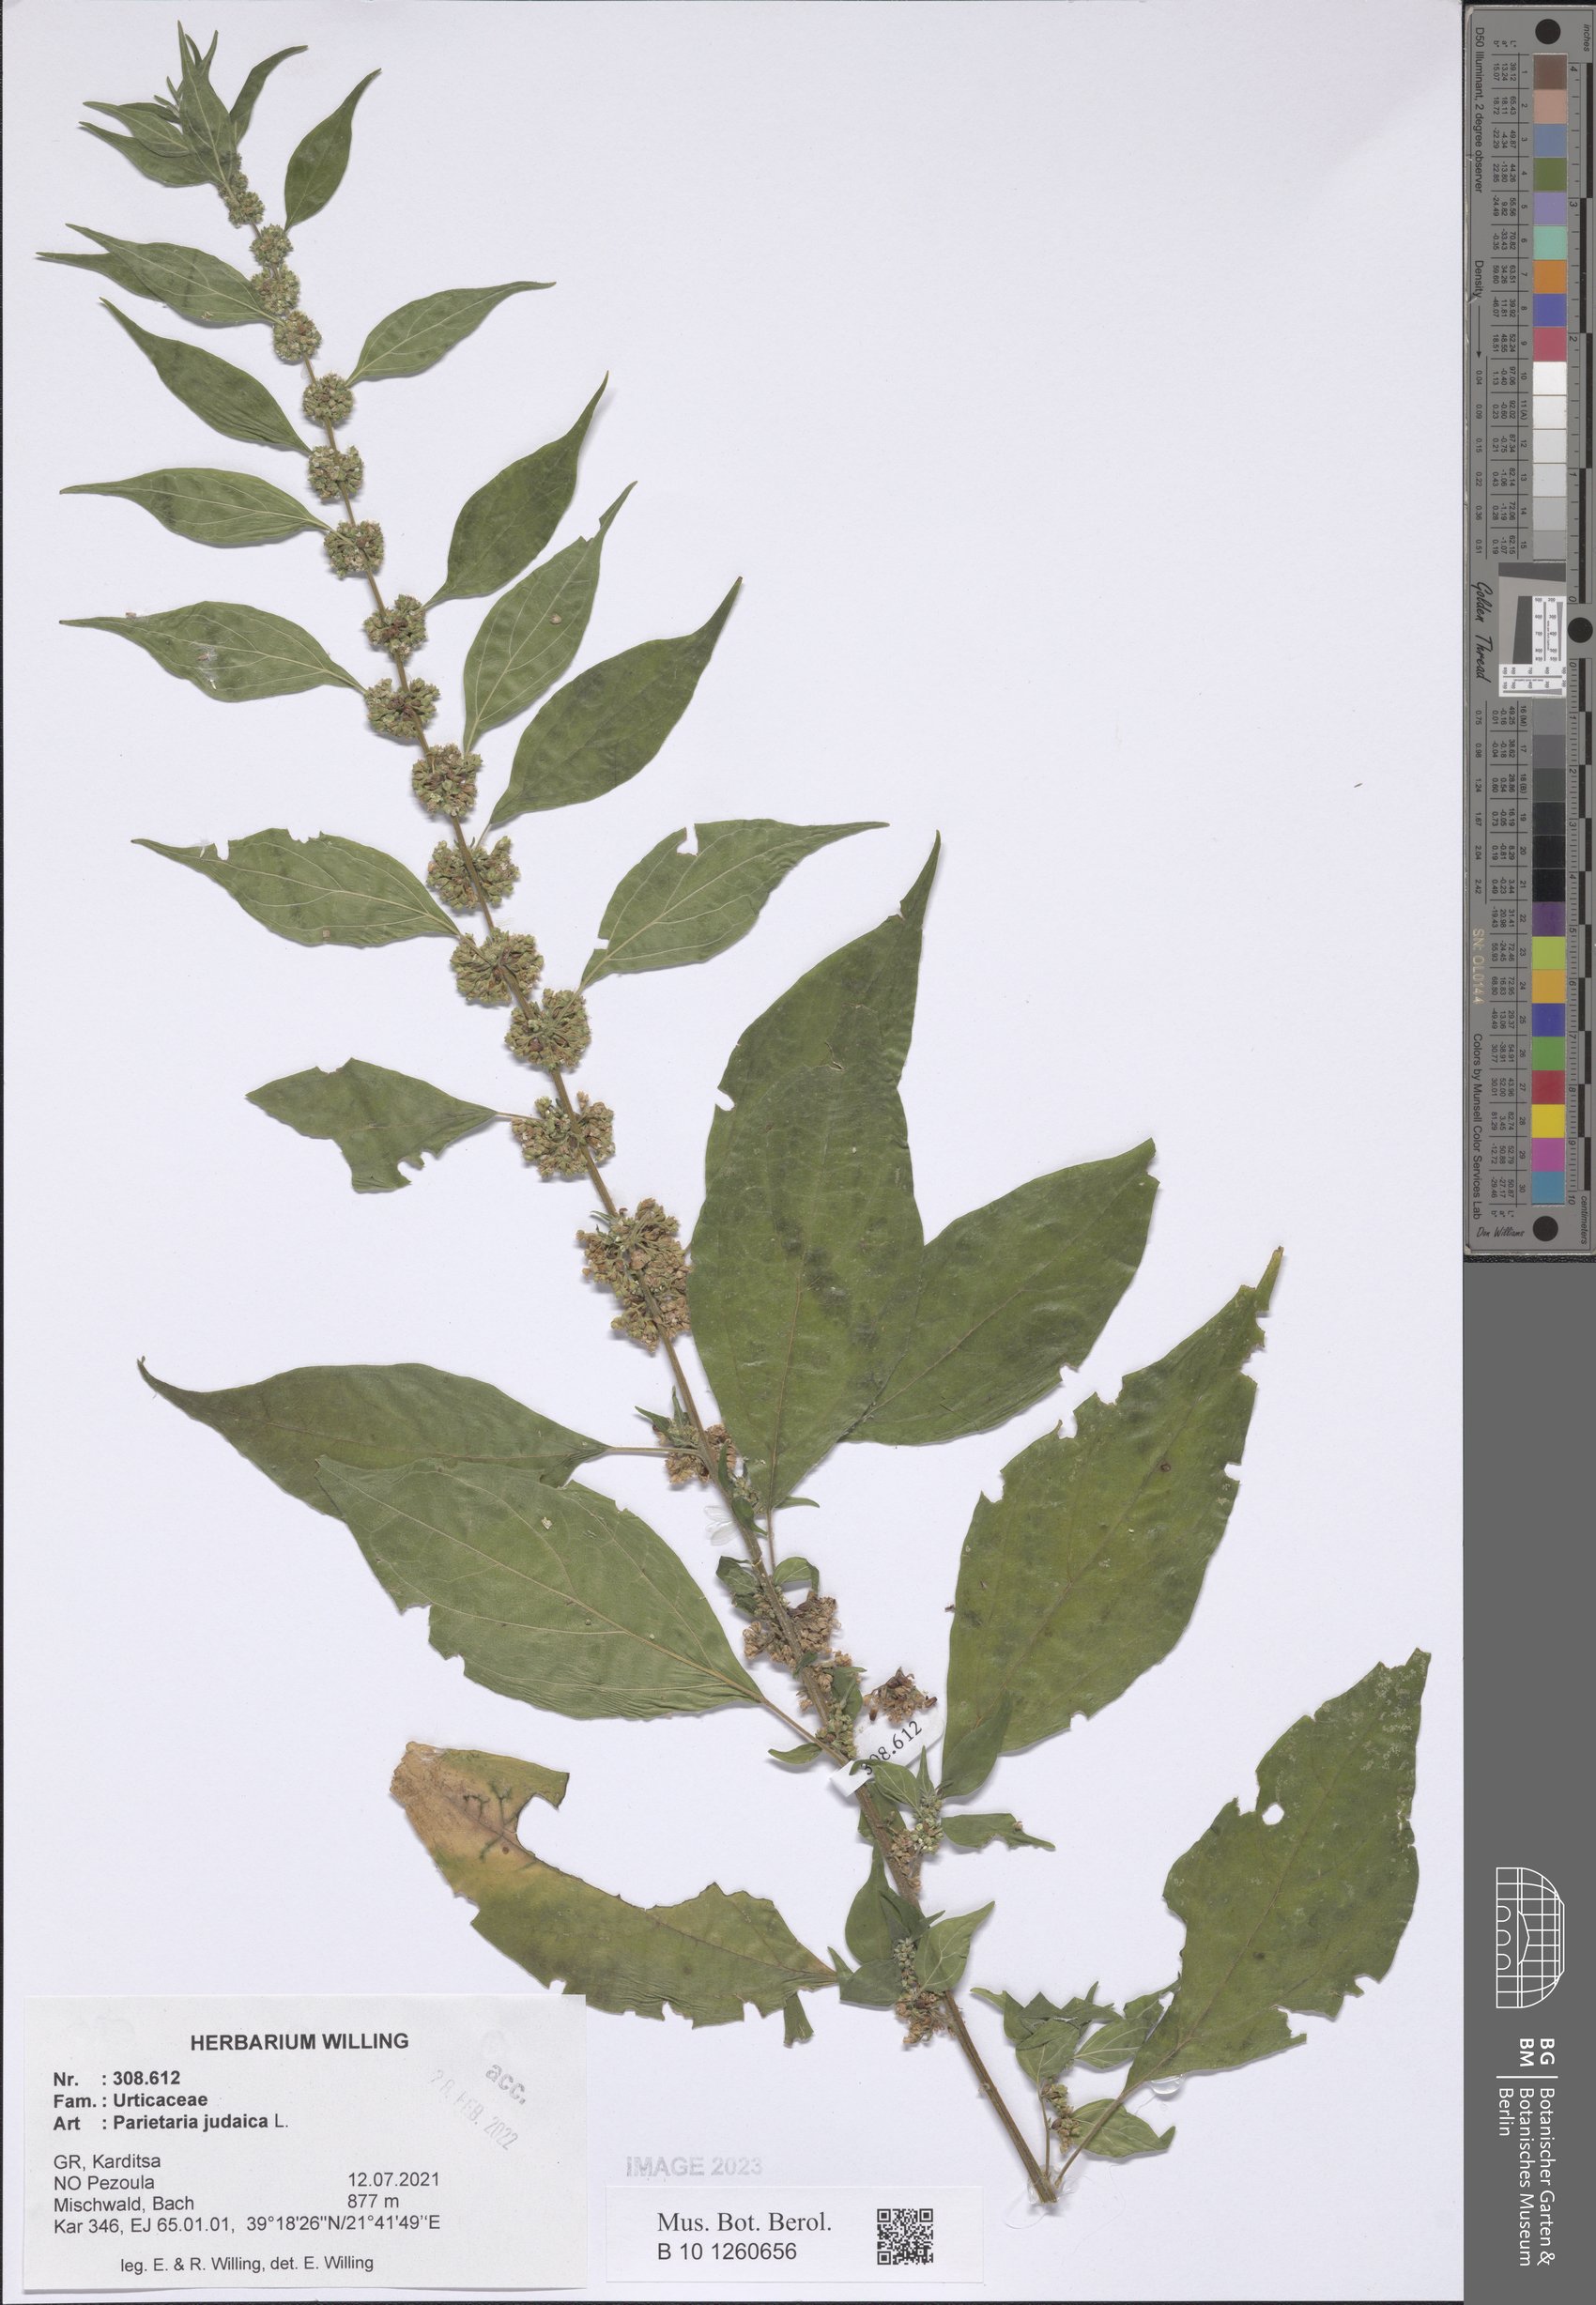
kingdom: Plantae
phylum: Tracheophyta
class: Magnoliopsida
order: Rosales
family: Urticaceae
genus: Parietaria
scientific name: Parietaria judaica
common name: Pellitory-of-the-wall
